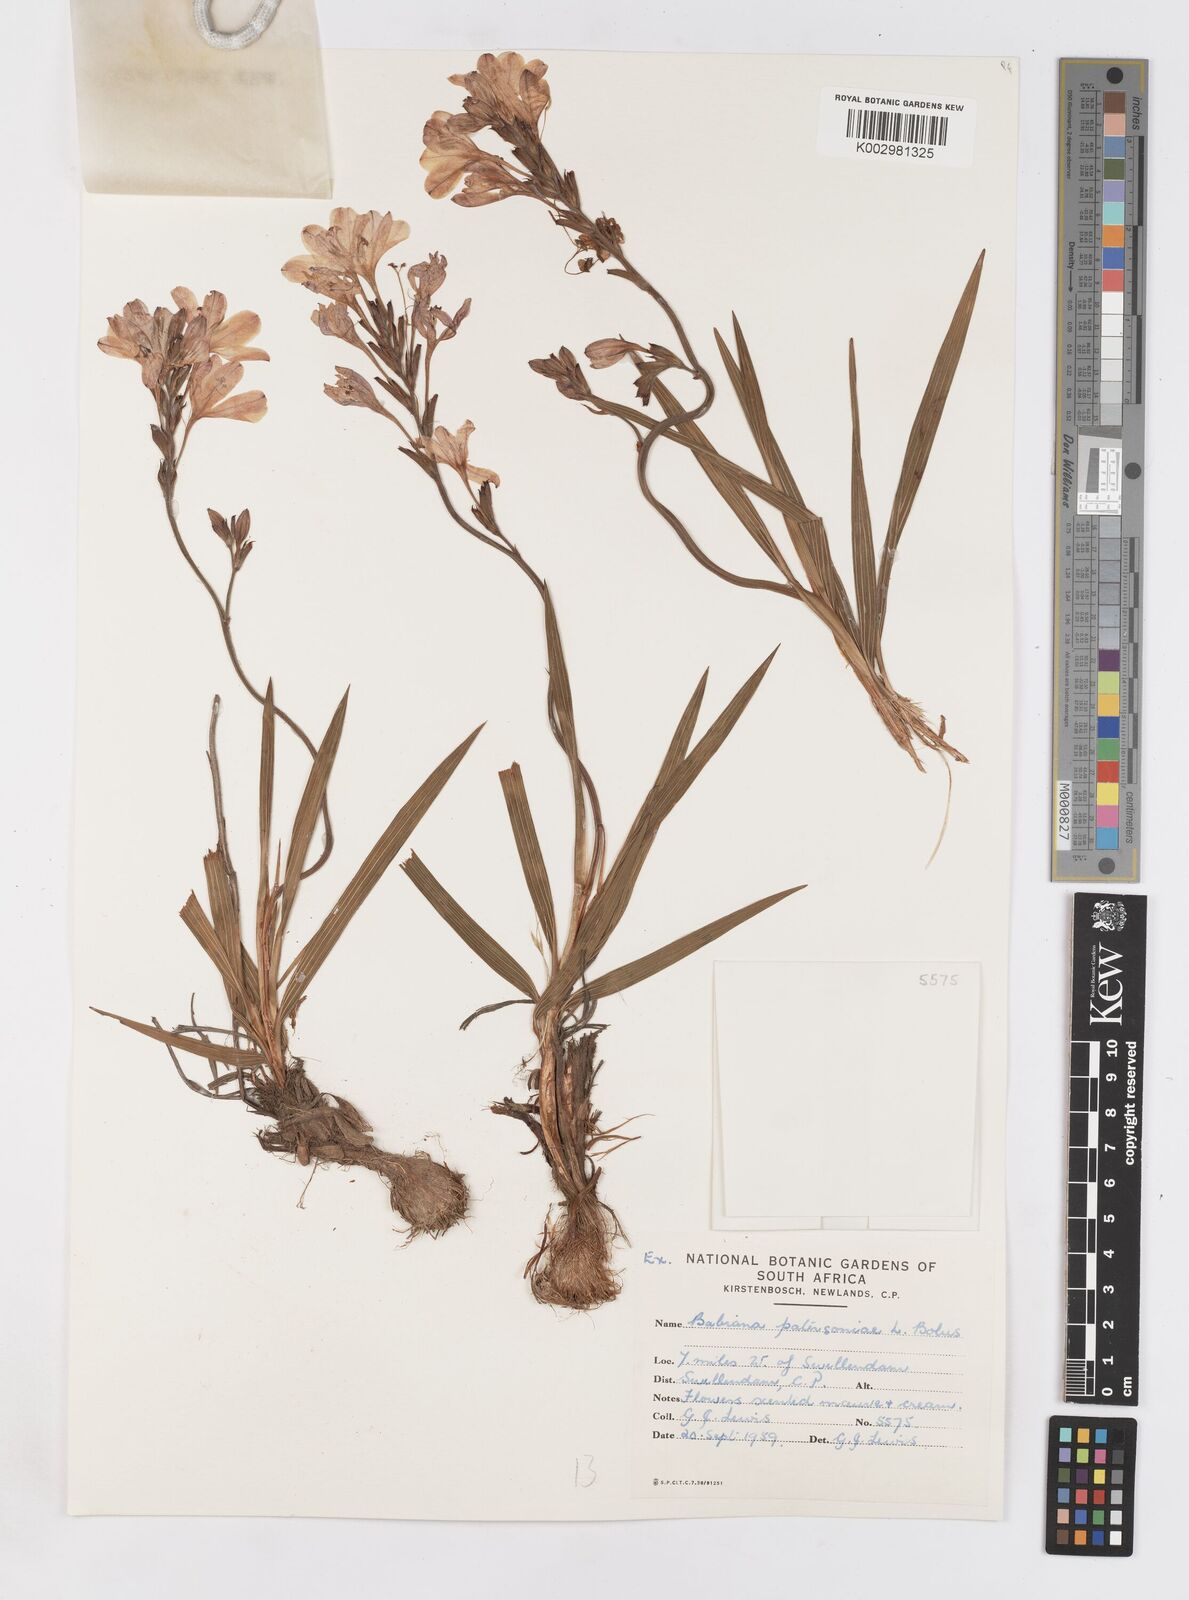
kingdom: Plantae
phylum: Tracheophyta
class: Liliopsida
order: Asparagales
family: Iridaceae
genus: Babiana
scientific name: Babiana patersoniae
